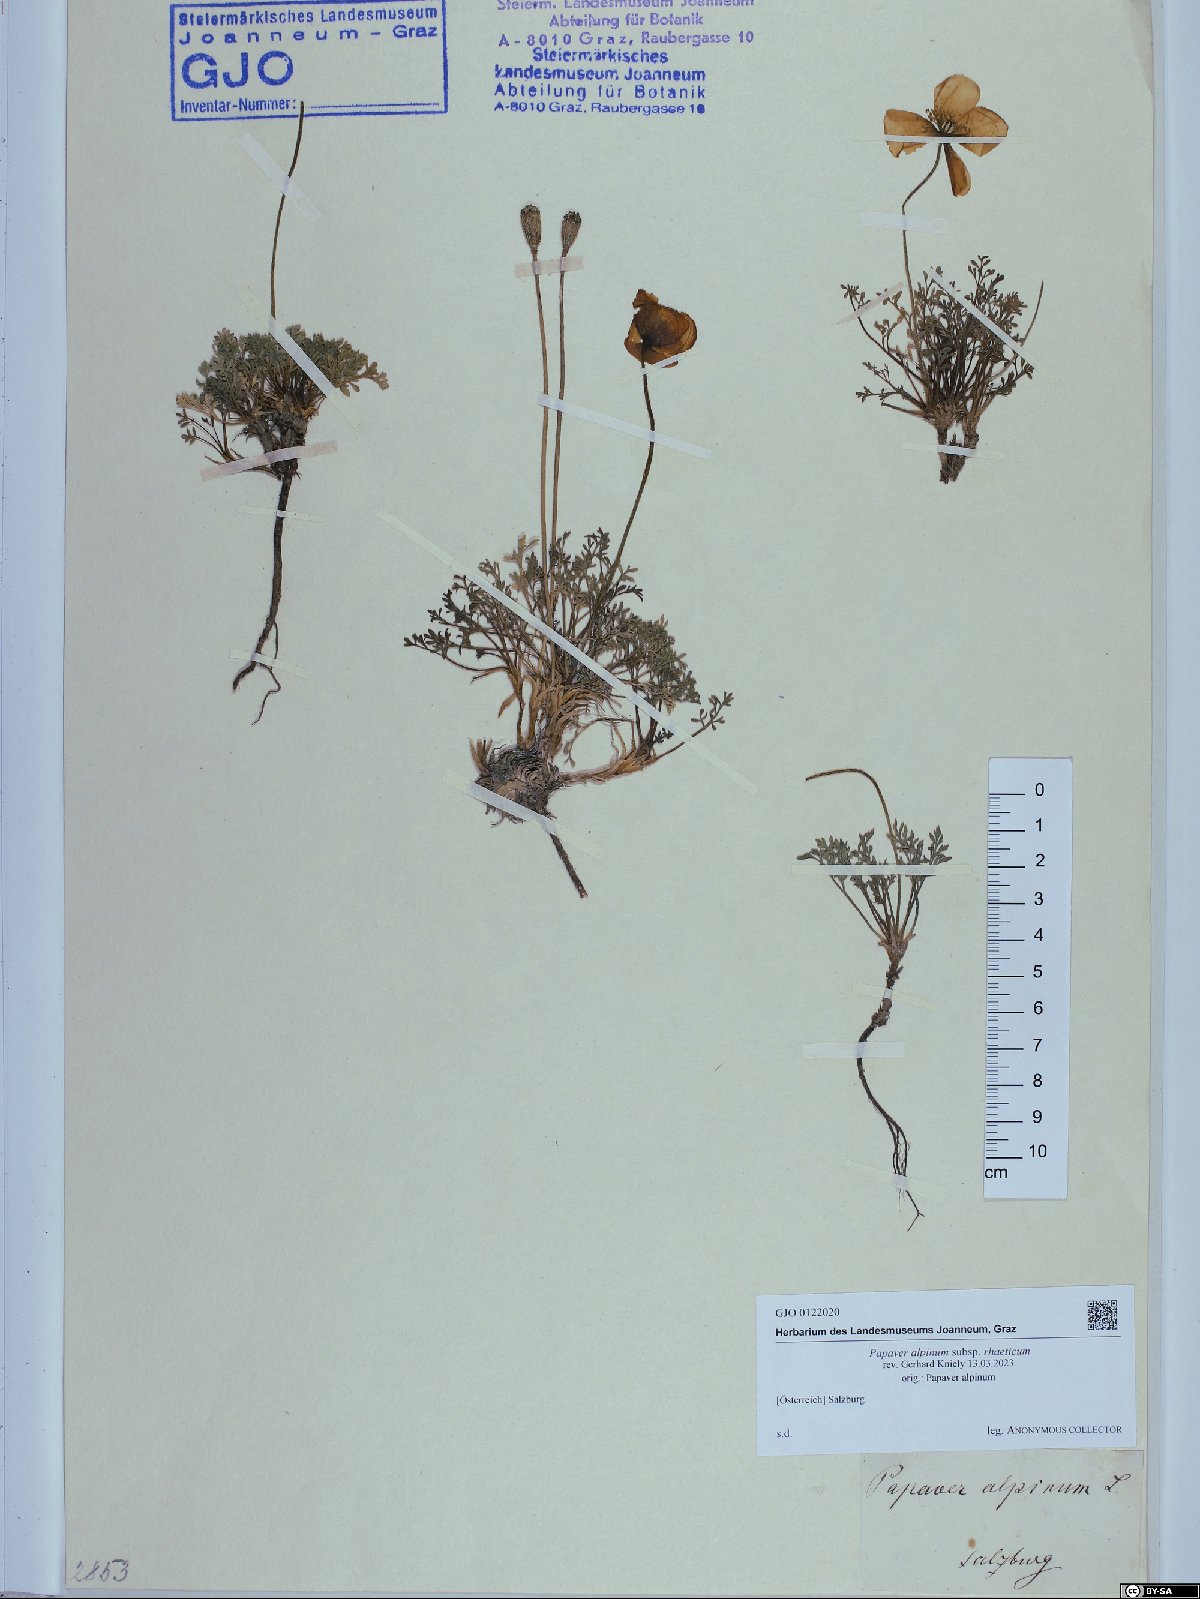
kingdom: Plantae
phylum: Tracheophyta
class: Magnoliopsida
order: Ranunculales
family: Papaveraceae
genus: Papaver
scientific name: Papaver alpinum
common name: Austrian poppy
